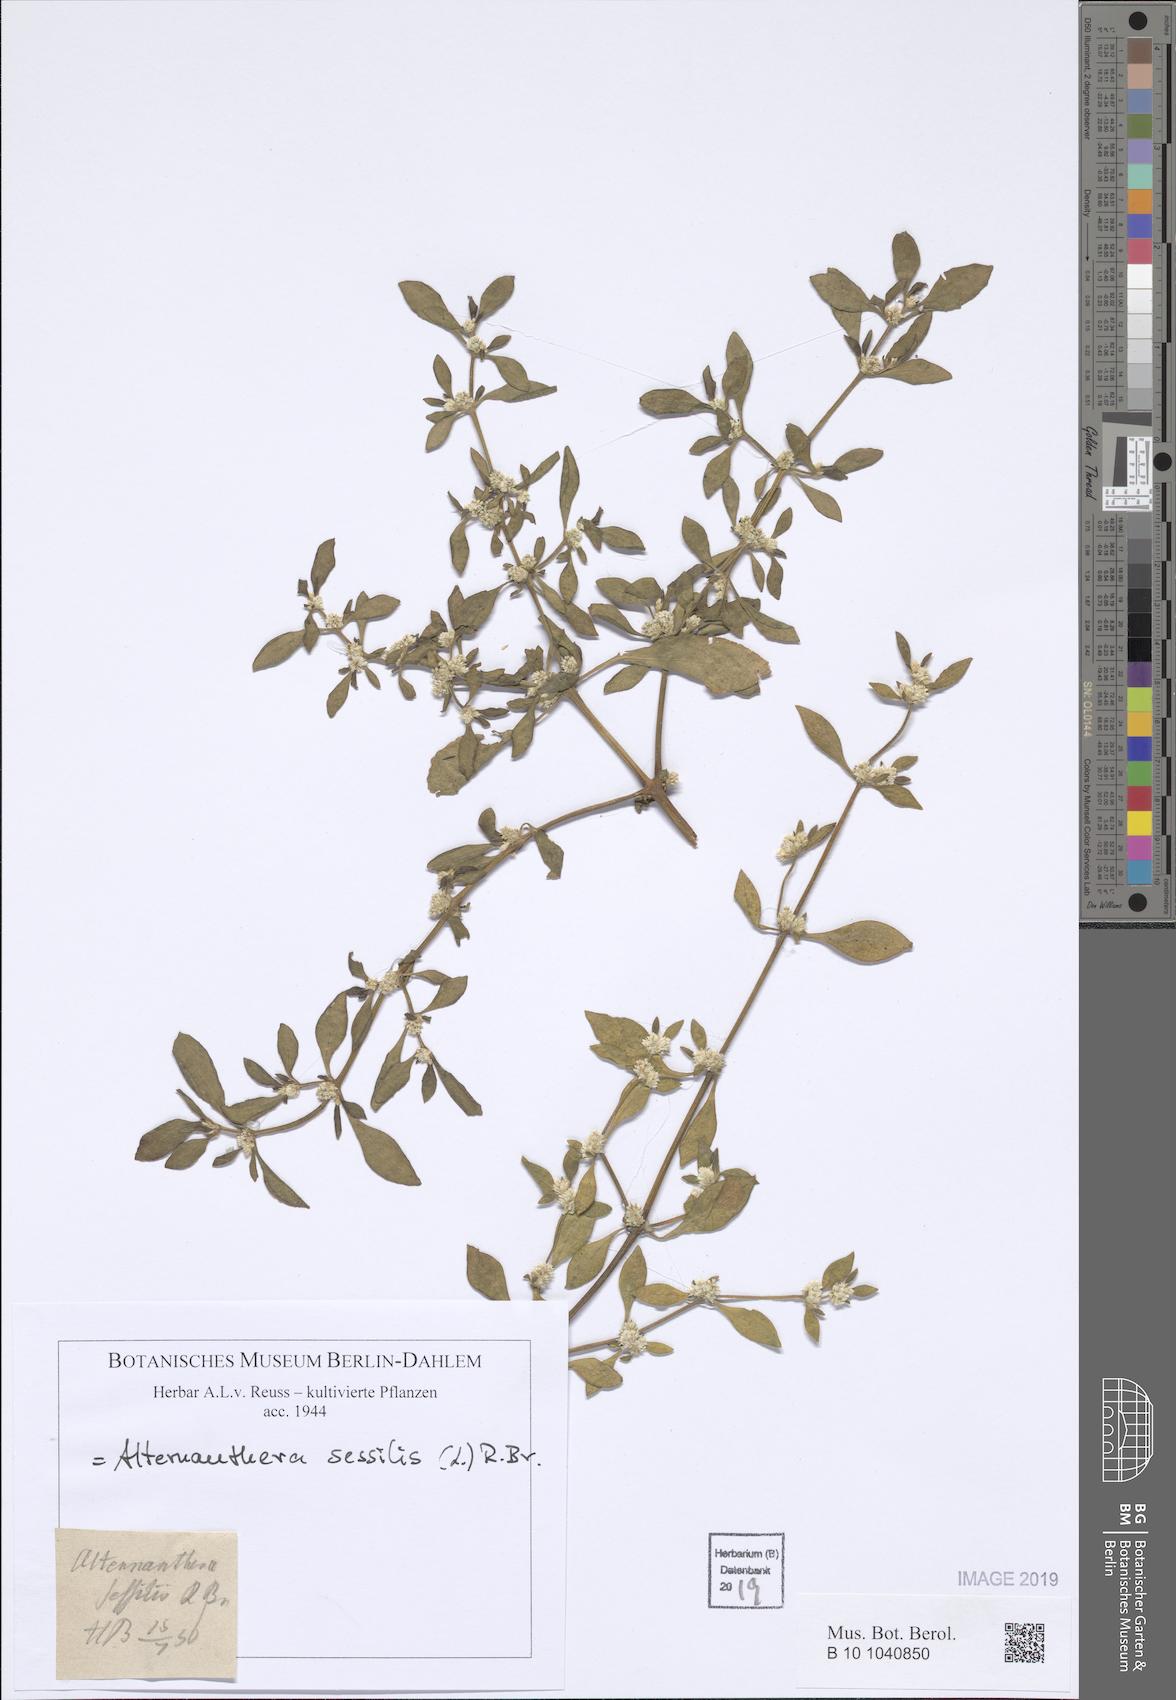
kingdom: Plantae
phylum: Tracheophyta
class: Magnoliopsida
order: Caryophyllales
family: Amaranthaceae
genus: Alternanthera
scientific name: Alternanthera sessilis
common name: Sessile joyweed
